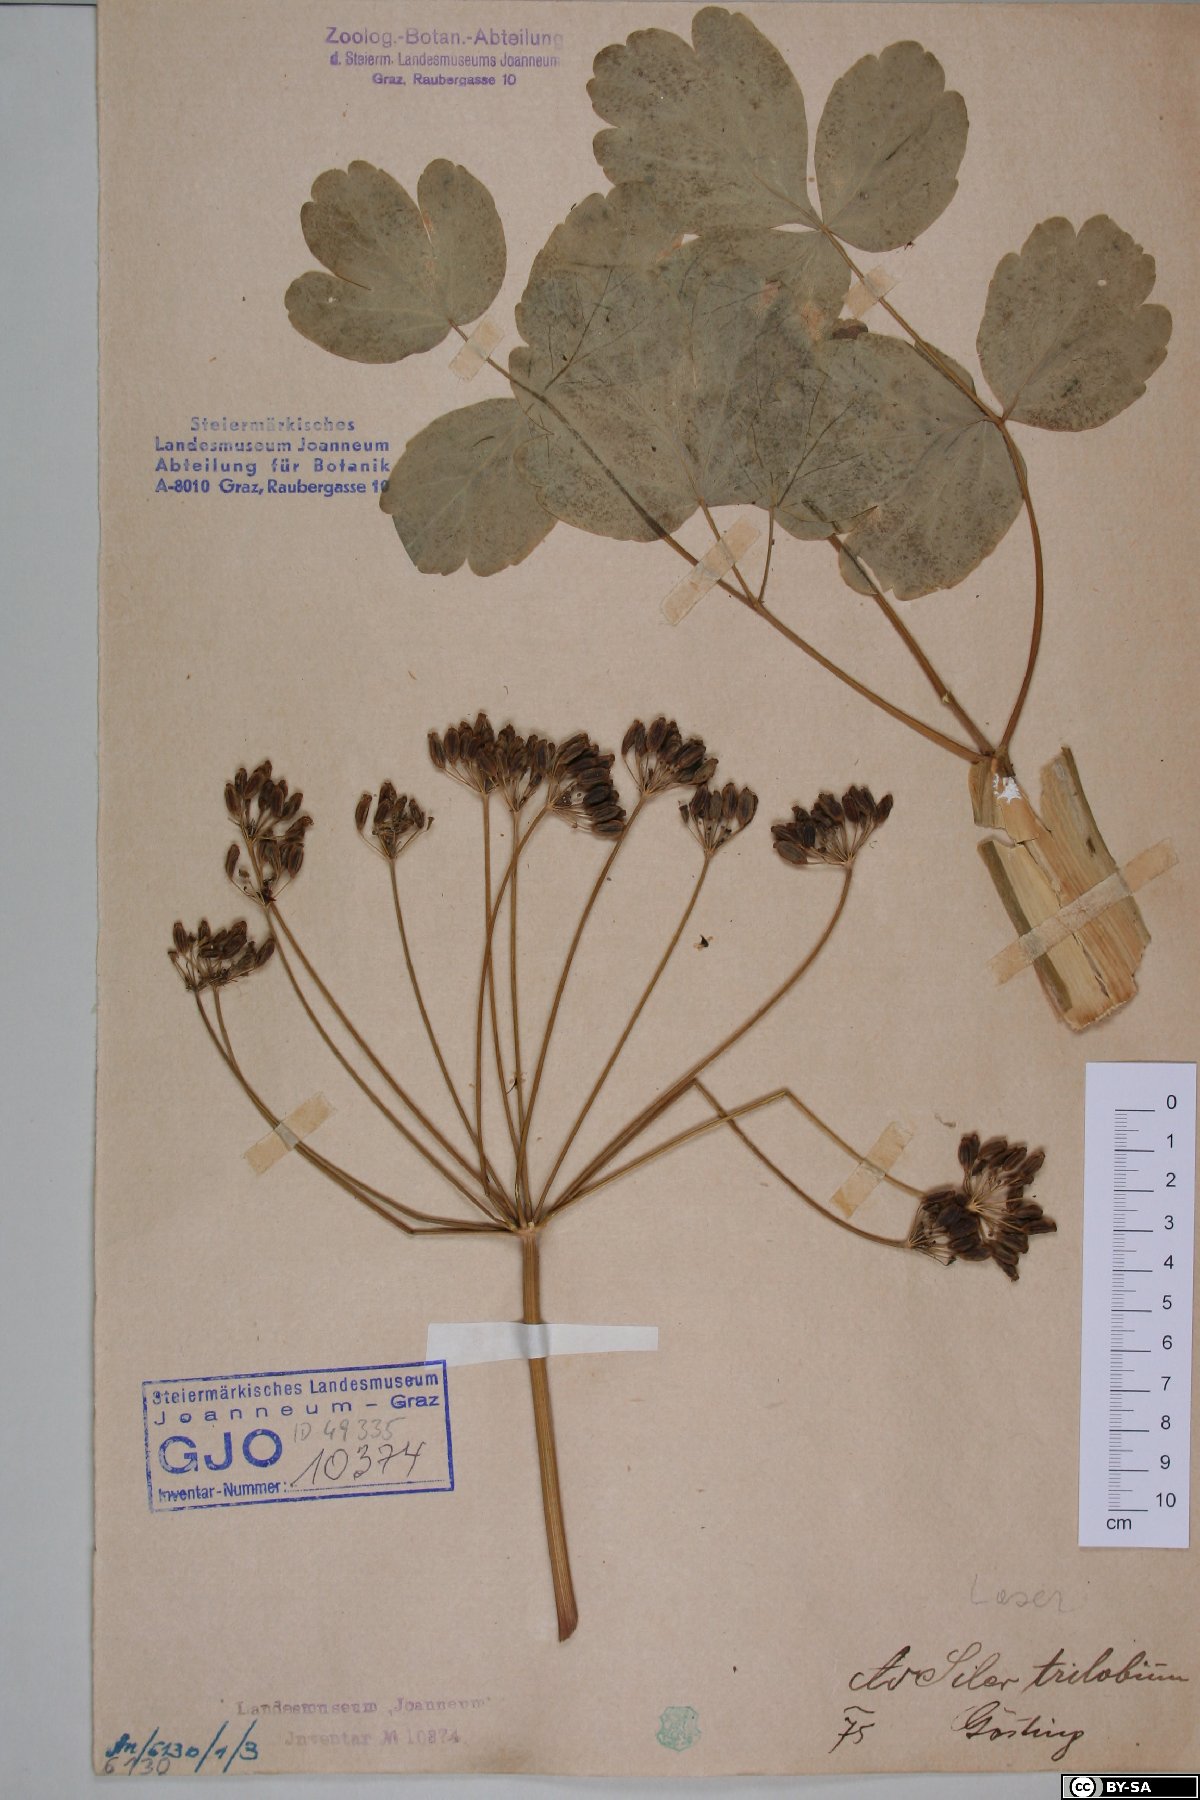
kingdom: Plantae
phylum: Tracheophyta
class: Magnoliopsida
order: Apiales
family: Apiaceae
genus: Laser
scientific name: Laser trilobum
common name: Laser
